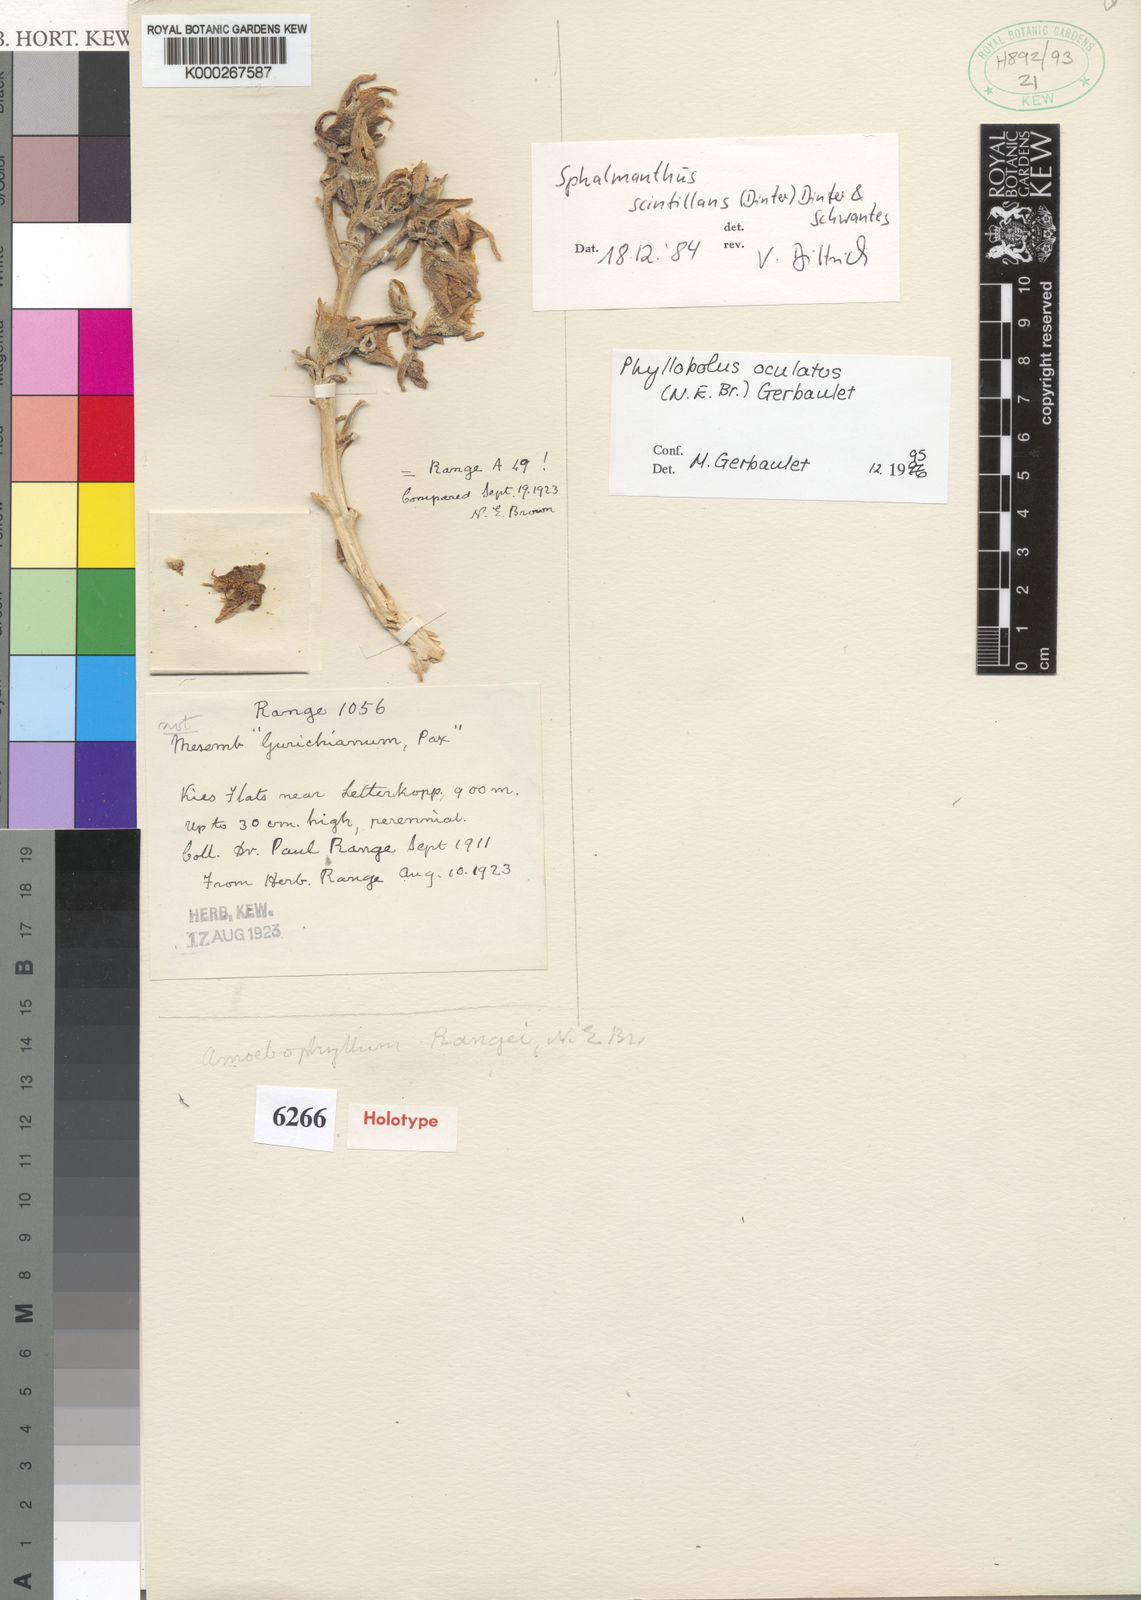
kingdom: Plantae
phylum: Tracheophyta
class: Magnoliopsida
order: Caryophyllales
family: Aizoaceae
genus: Mesembryanthemum
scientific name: Mesembryanthemum oculatum
